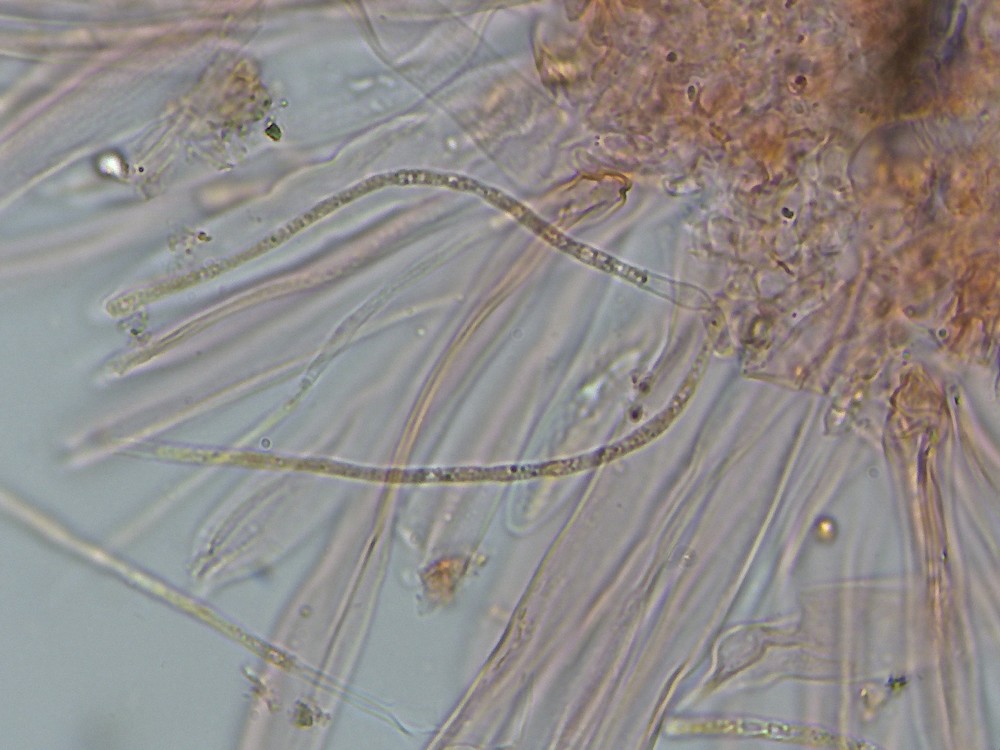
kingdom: Fungi
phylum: Ascomycota
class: Leotiomycetes
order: Rhytismatales
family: Rhytismataceae
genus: Lophodermium
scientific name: Lophodermium juniperinum
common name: ene-fureplet
